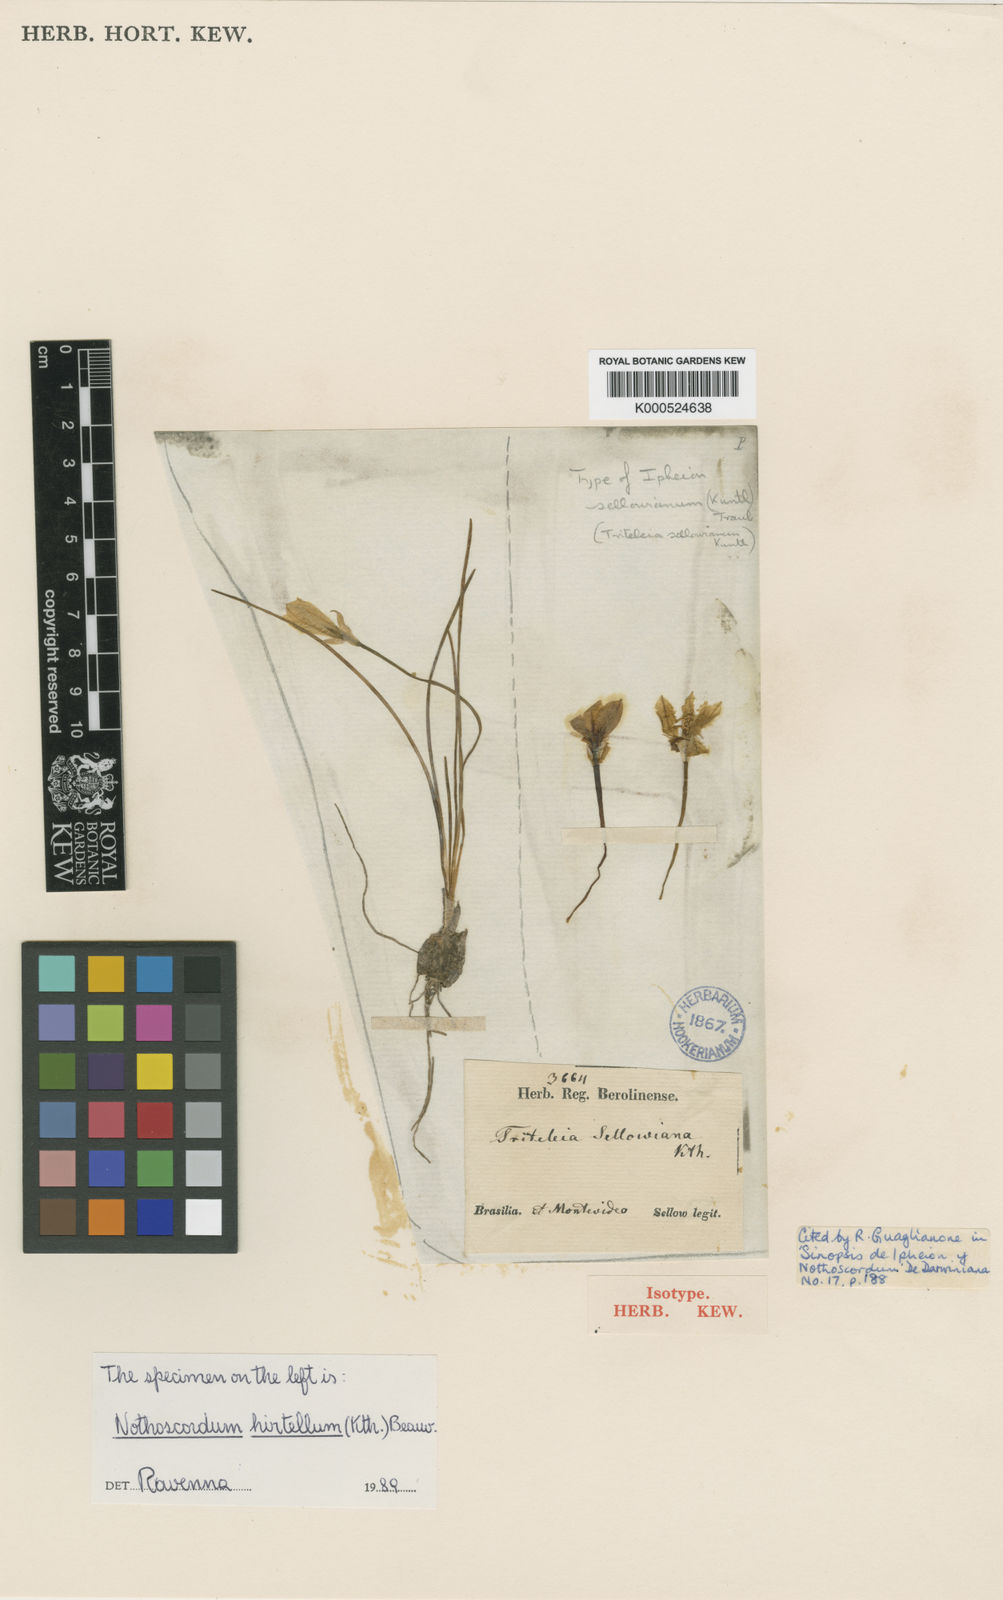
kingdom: Plantae
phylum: Tracheophyta
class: Liliopsida
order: Asparagales
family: Amaryllidaceae
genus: Nothoscordum
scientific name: Nothoscordum felipponei
